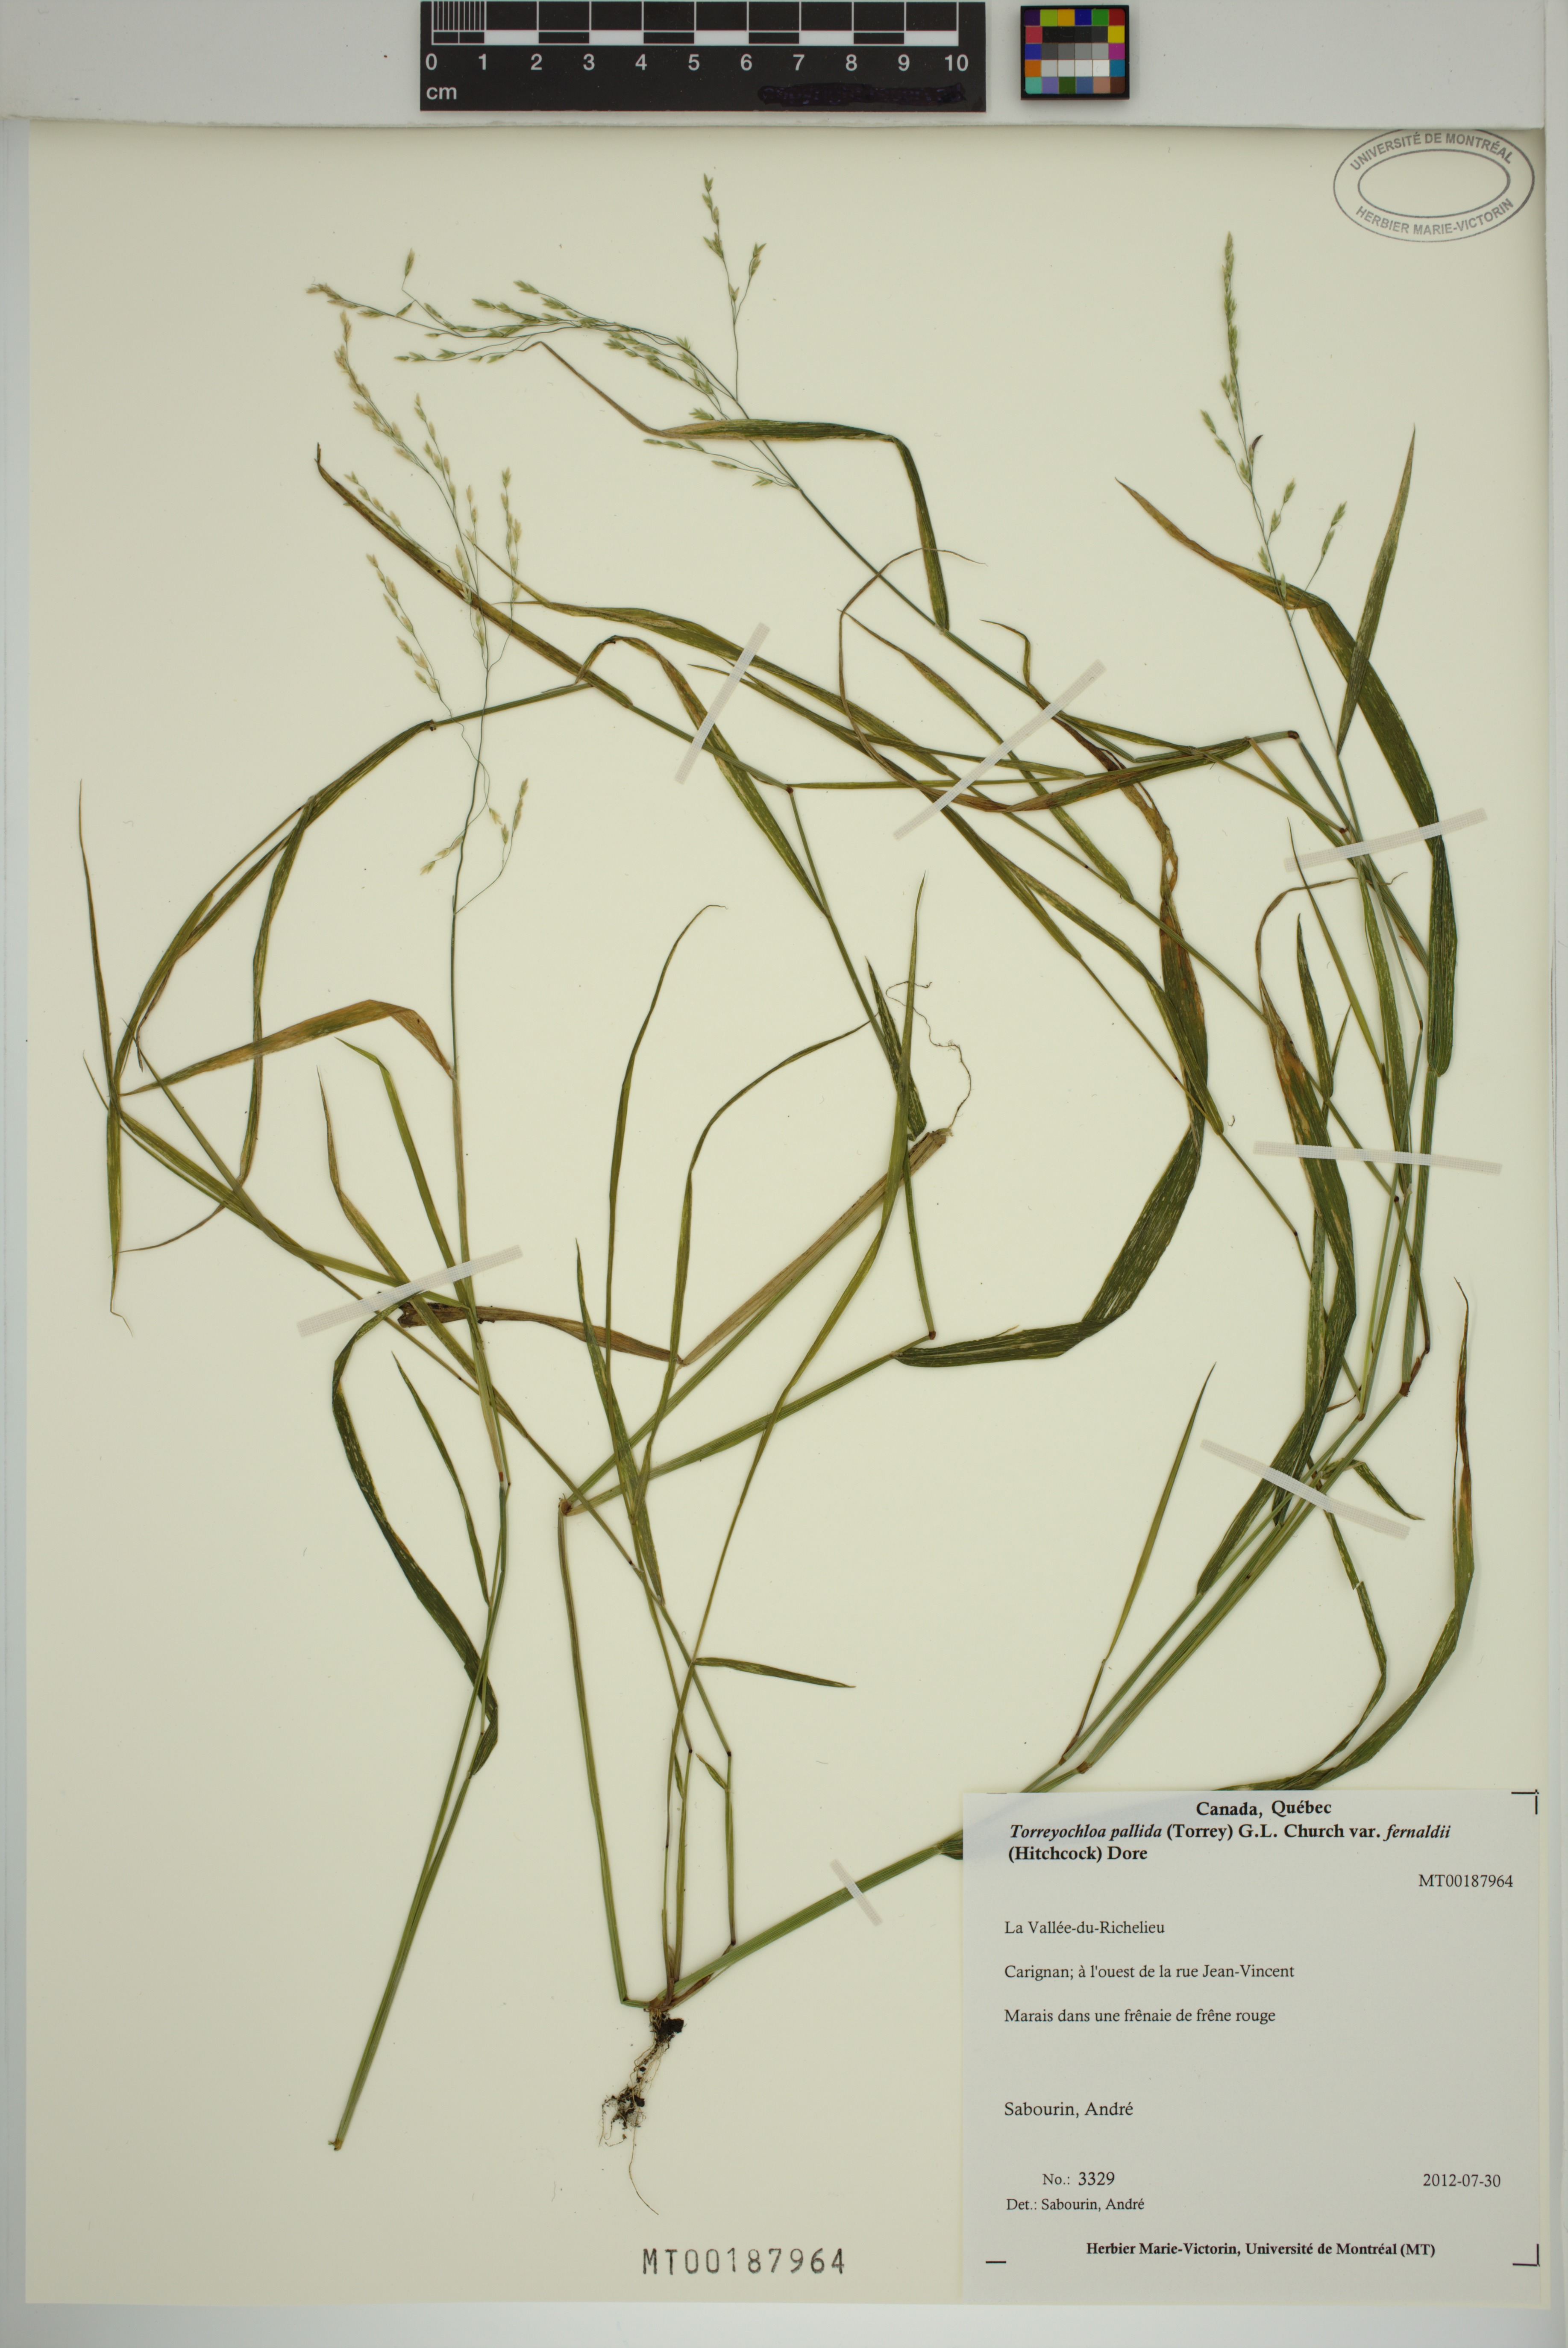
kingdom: Plantae
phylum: Tracheophyta
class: Liliopsida
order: Poales
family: Poaceae
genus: Torreyochloa
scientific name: Torreyochloa pallida
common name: Pale false mannagrass
